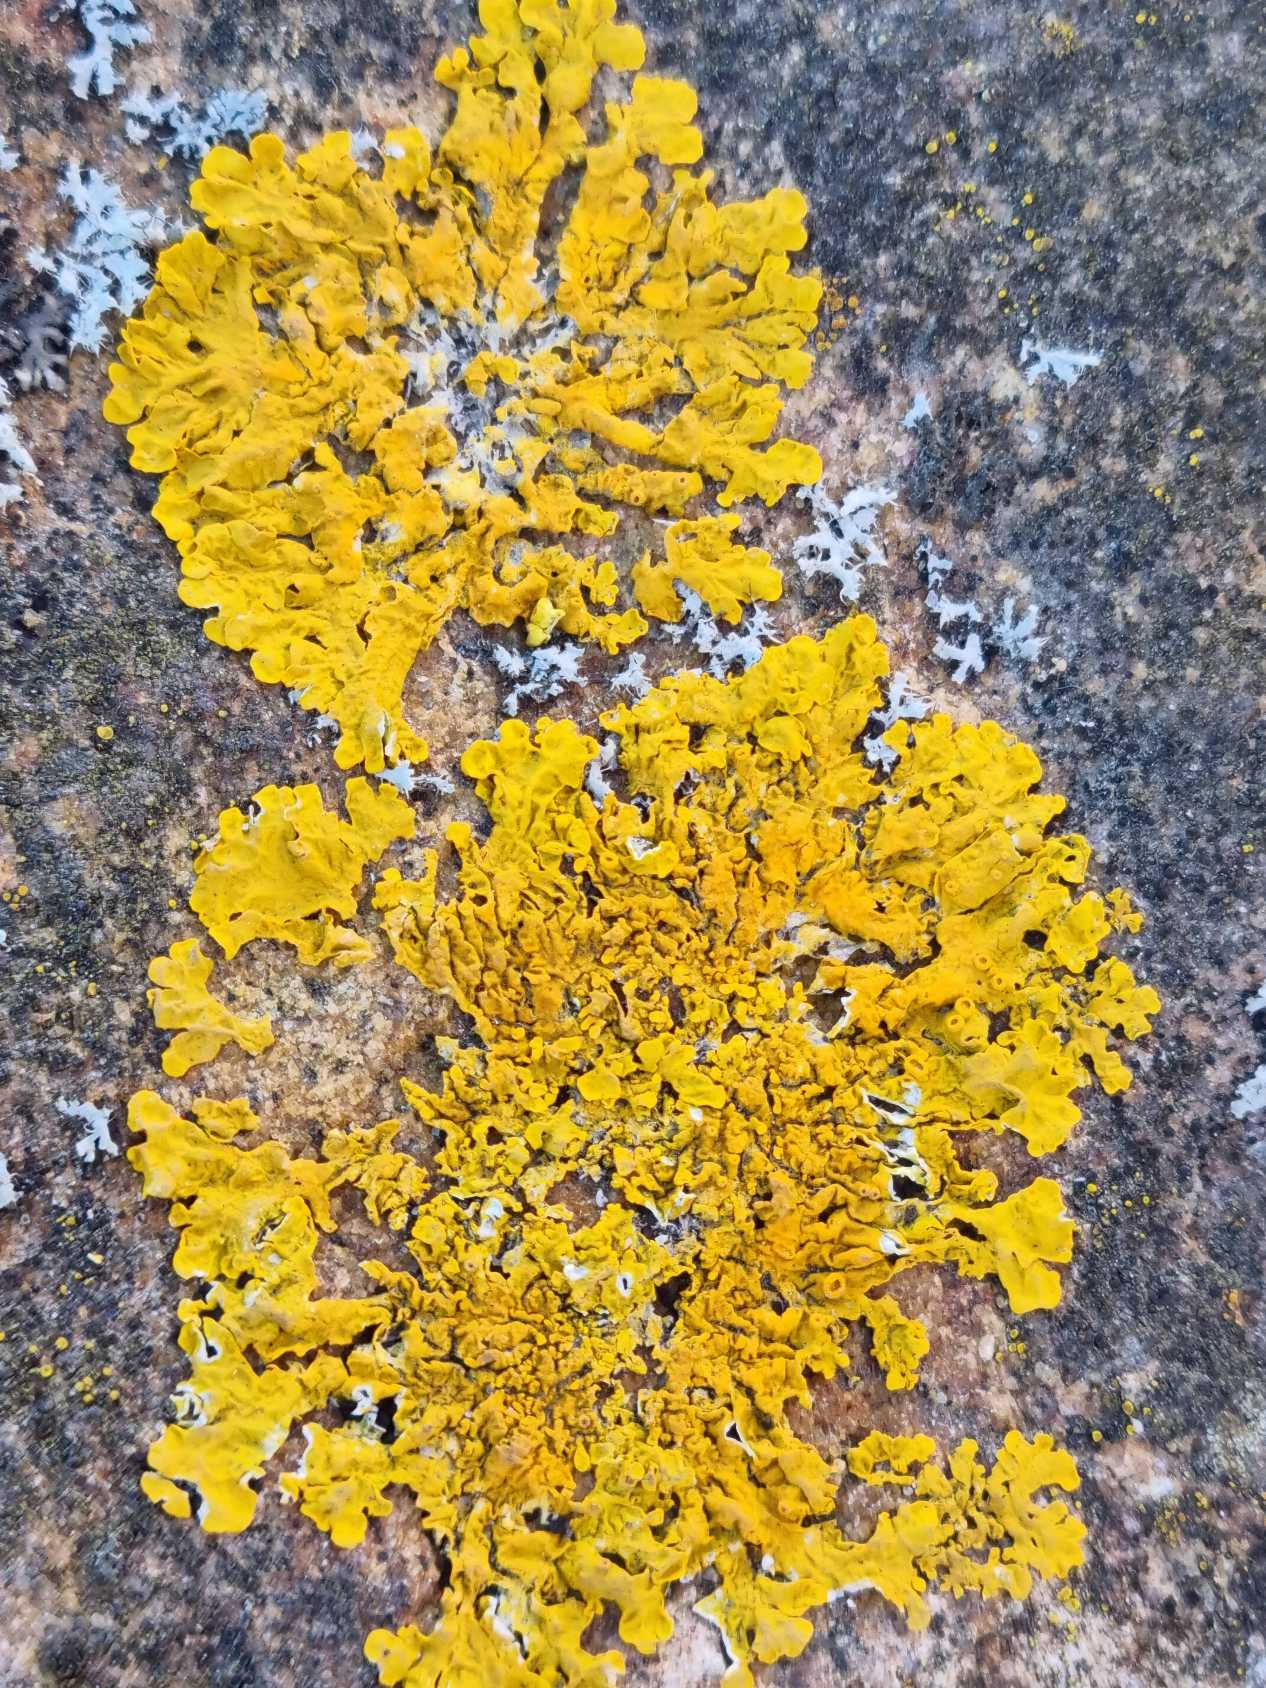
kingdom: Fungi
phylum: Ascomycota
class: Lecanoromycetes
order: Teloschistales
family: Teloschistaceae
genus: Xanthoria
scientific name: Xanthoria parietina
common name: Almindelig væggelav
